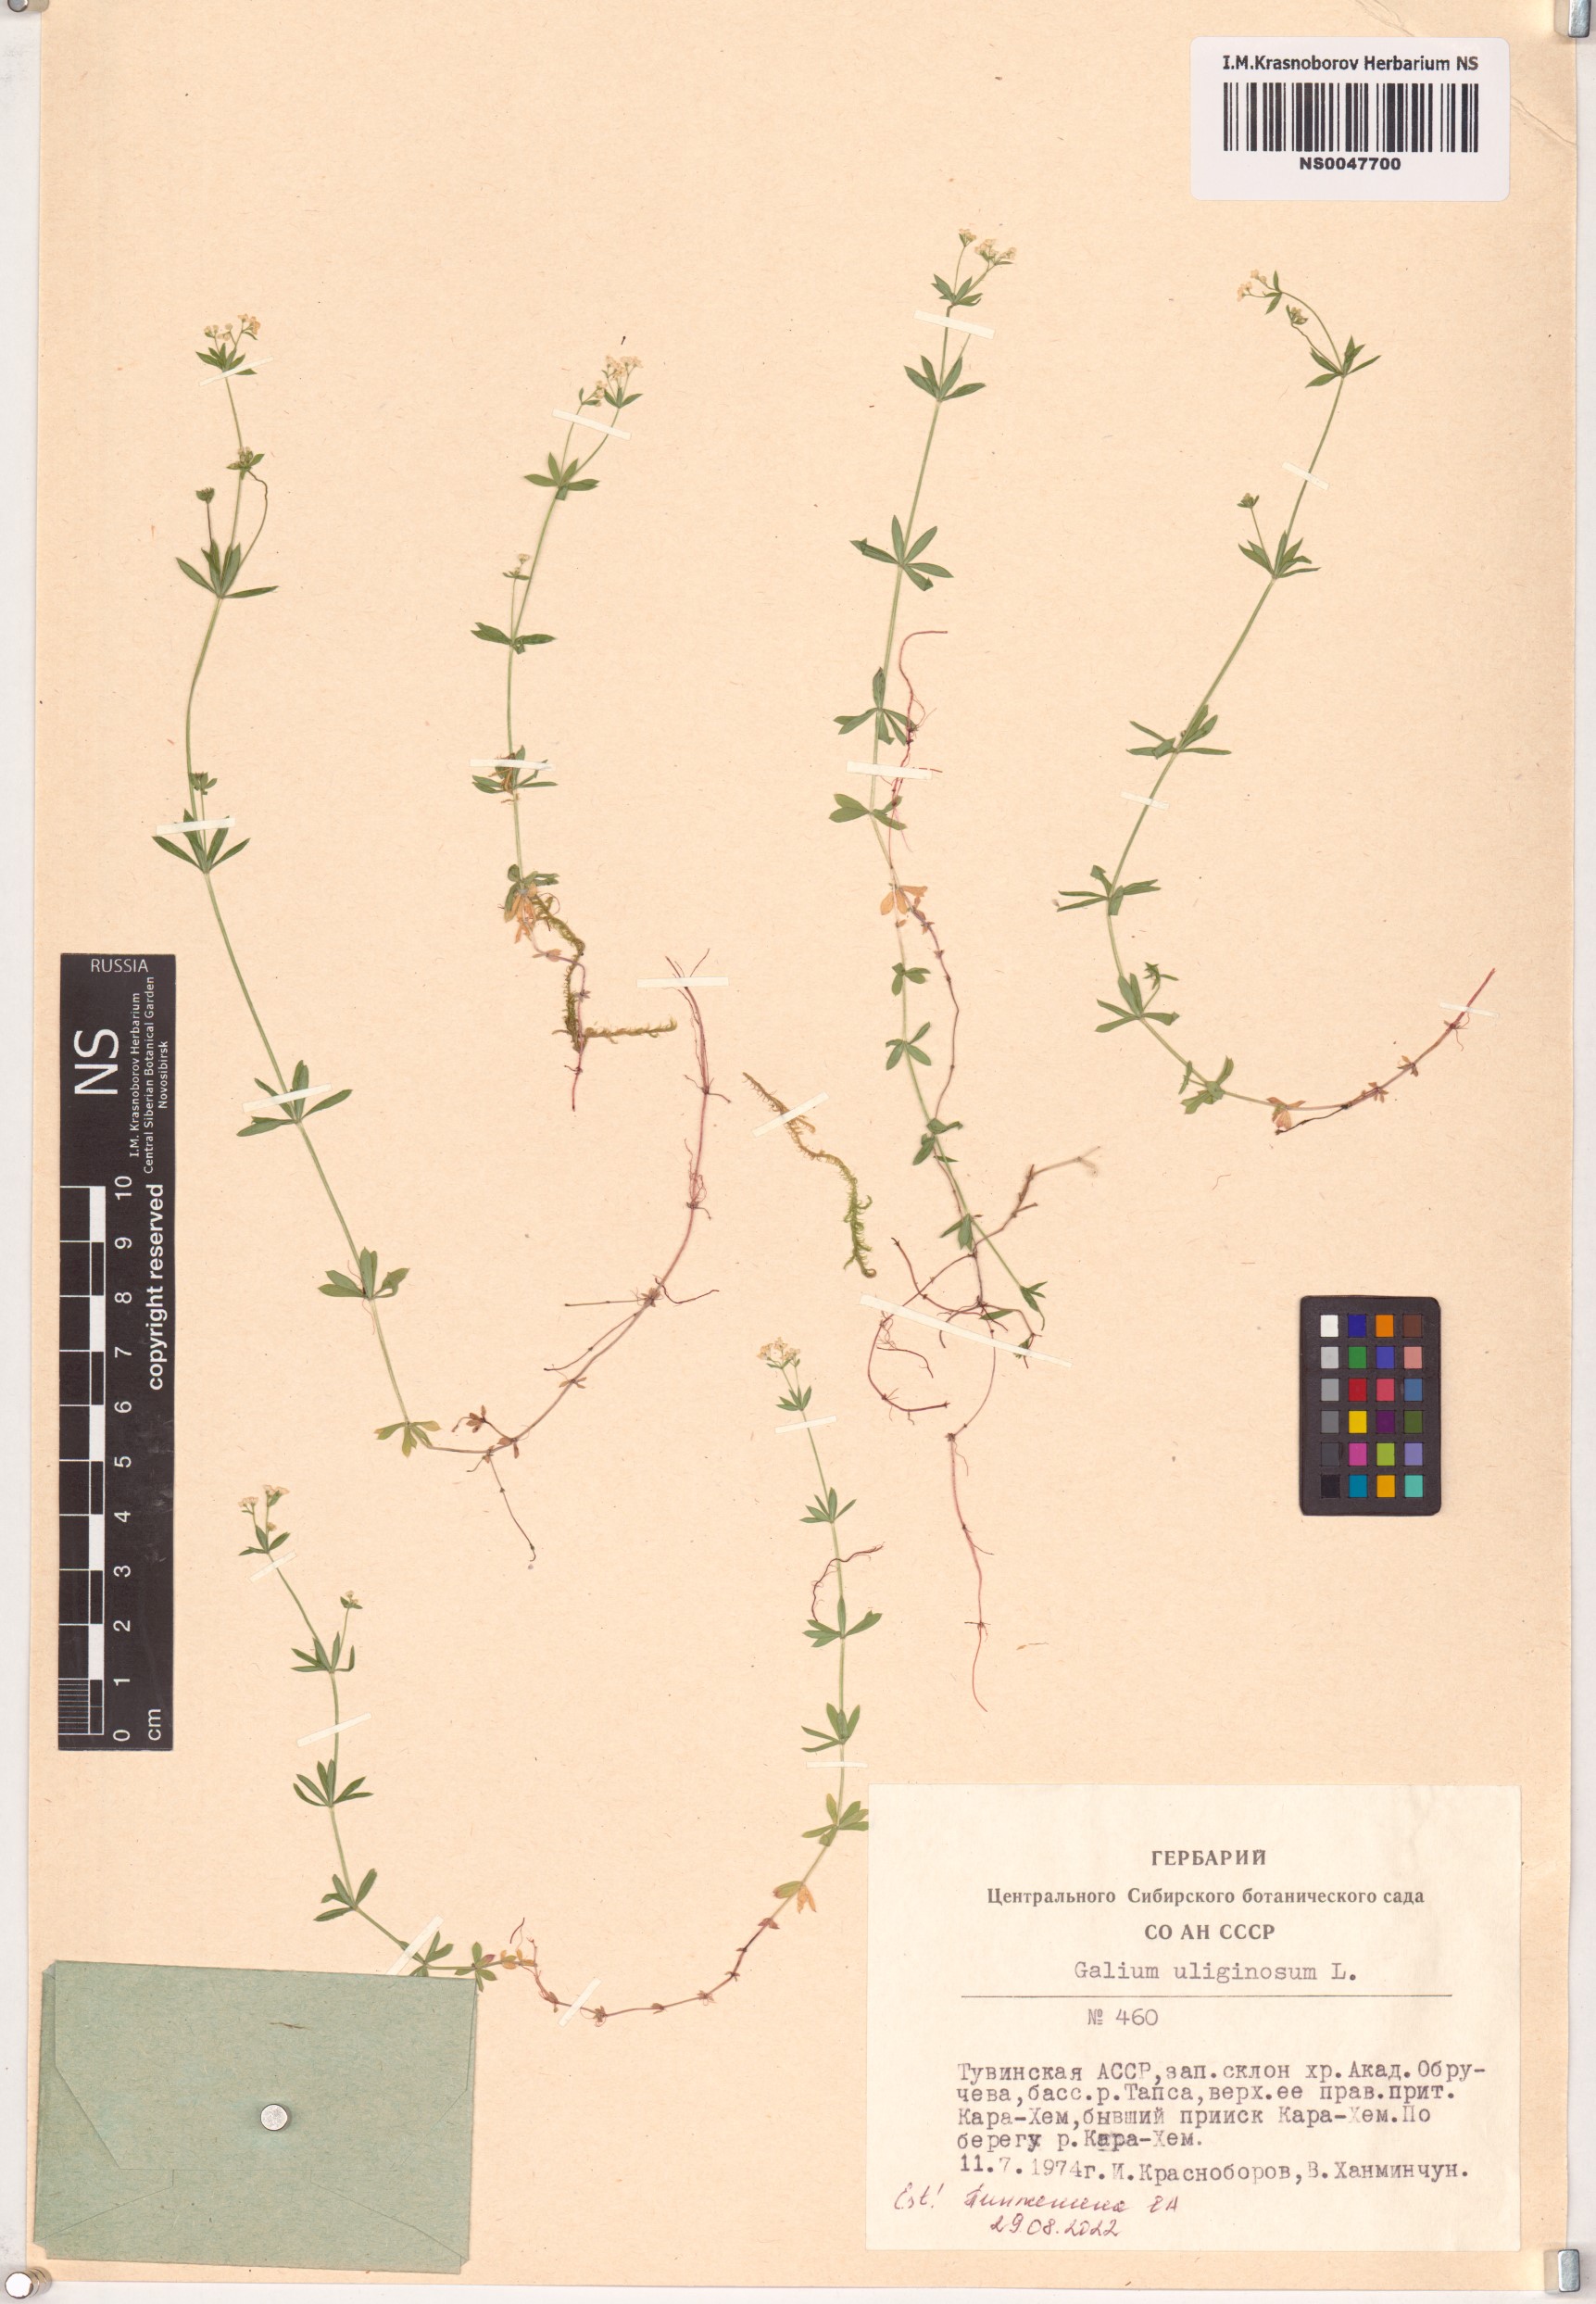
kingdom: Plantae
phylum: Tracheophyta
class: Magnoliopsida
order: Gentianales
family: Rubiaceae
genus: Galium
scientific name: Galium uliginosum
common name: Fen bedstraw
